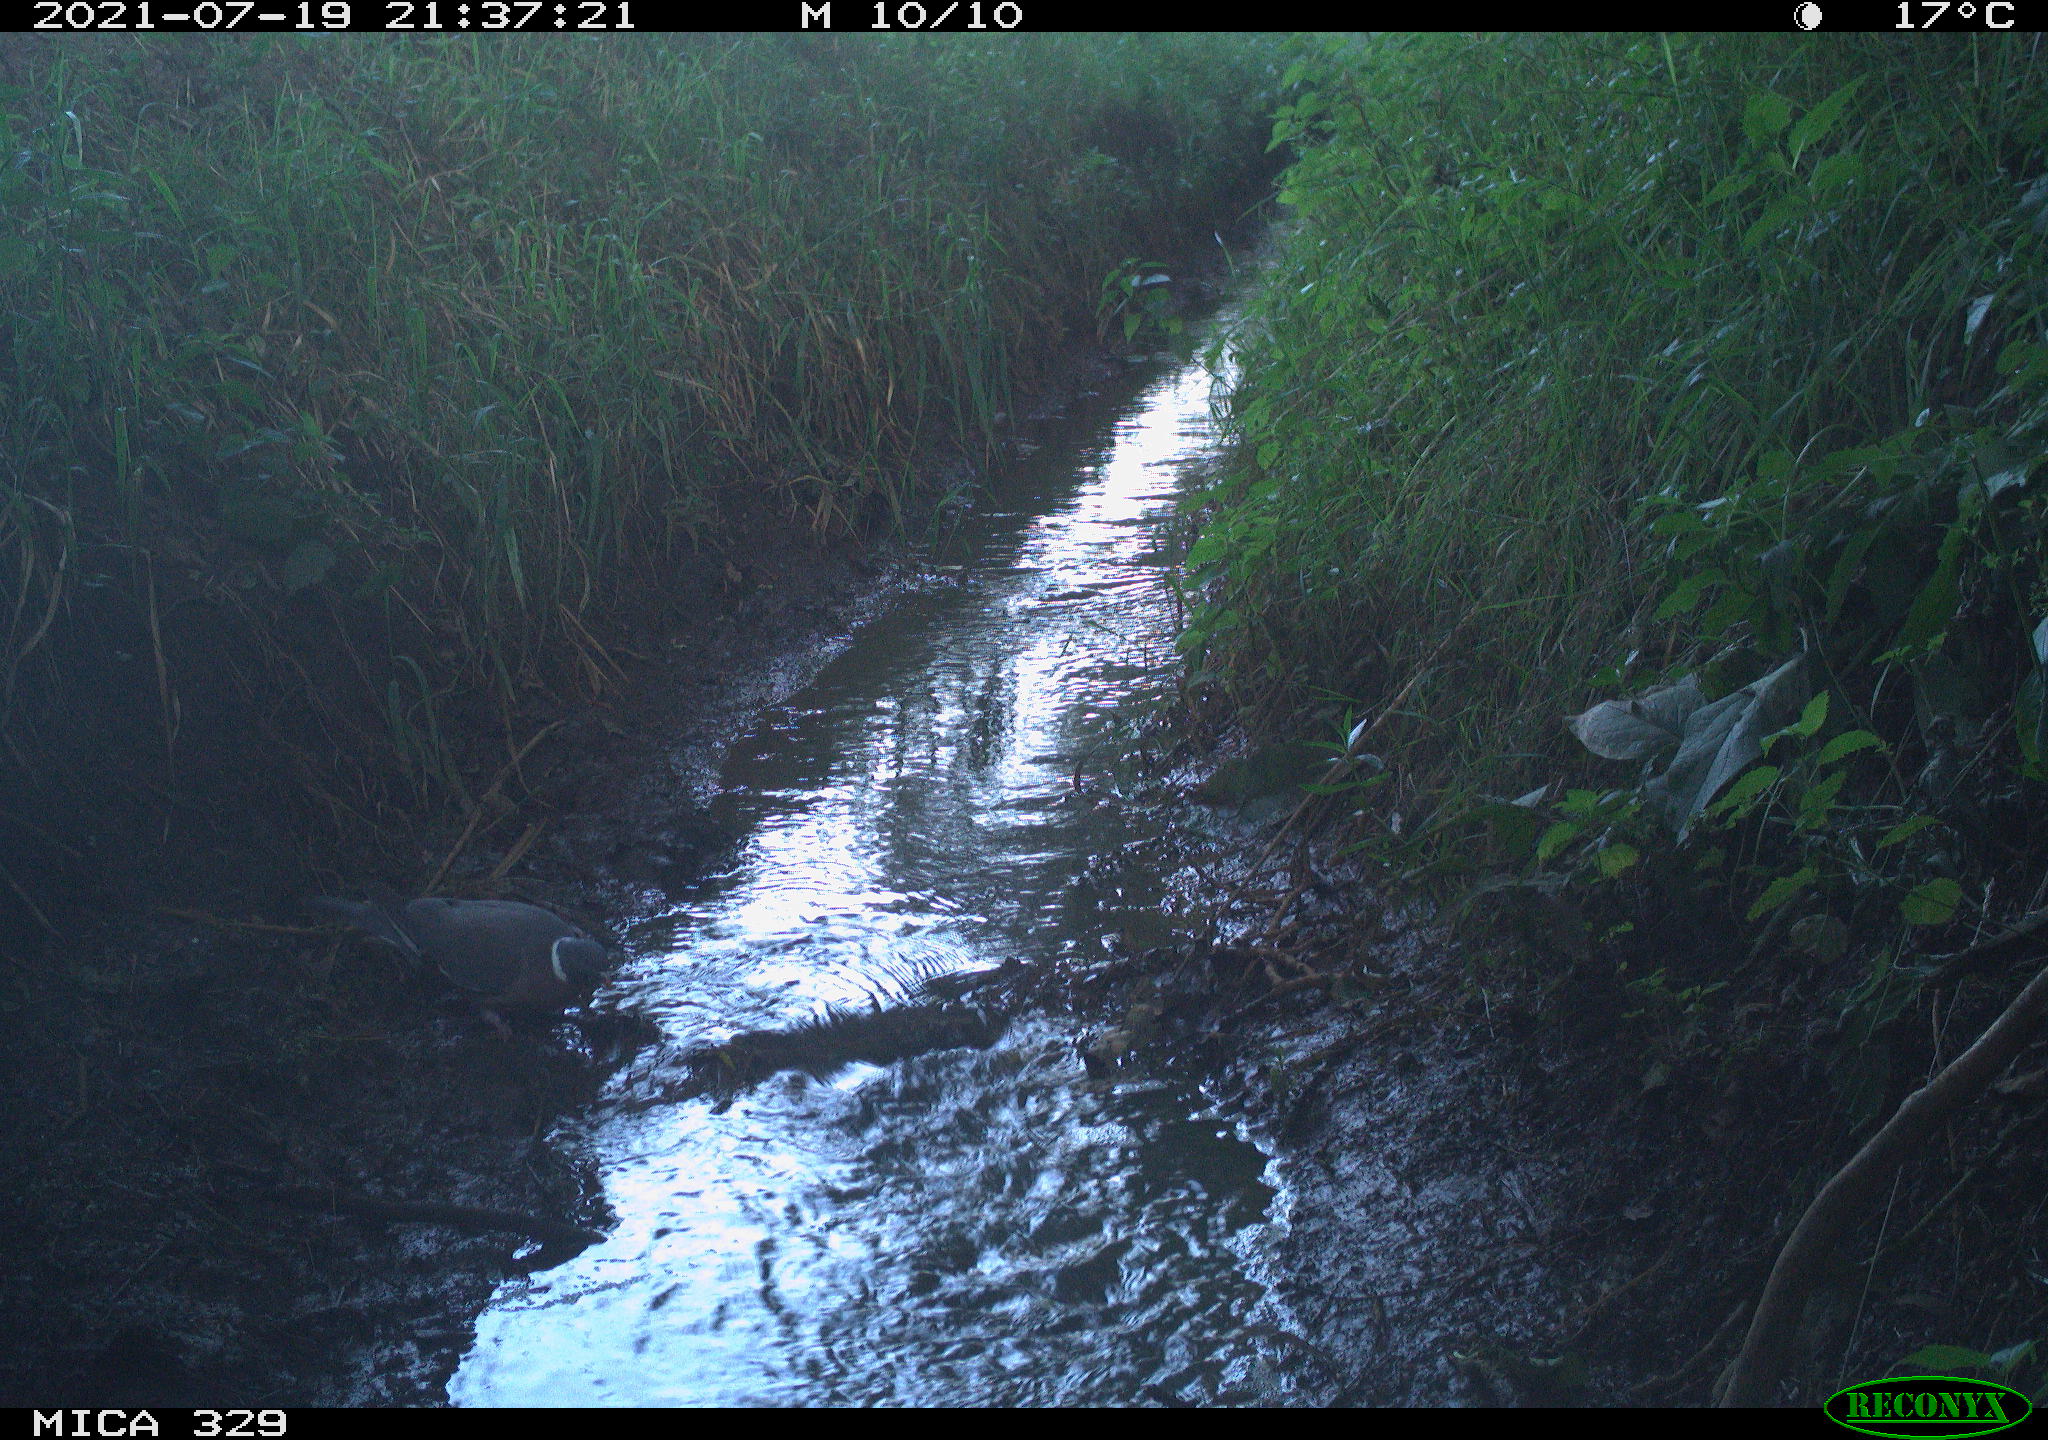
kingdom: Animalia
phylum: Chordata
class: Aves
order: Columbiformes
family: Columbidae
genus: Columba
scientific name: Columba palumbus
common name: Common wood pigeon
